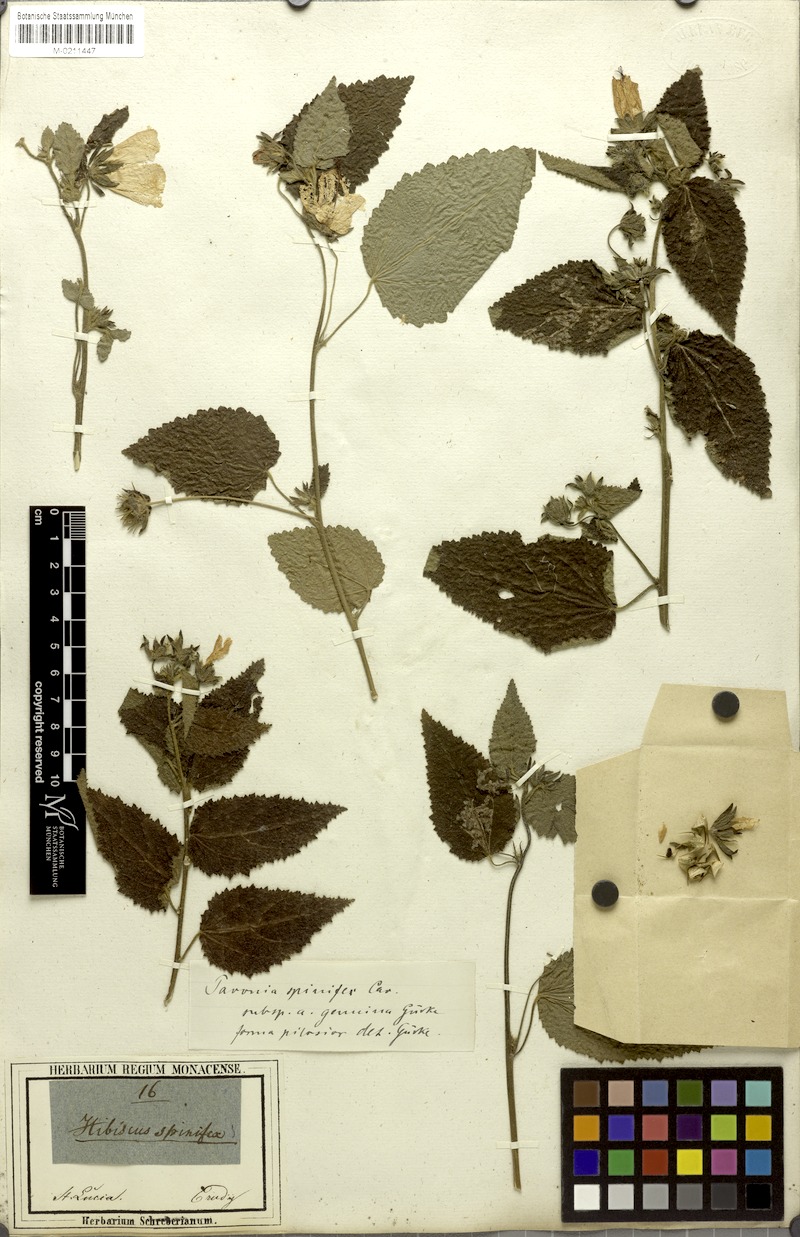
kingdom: Plantae
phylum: Tracheophyta
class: Magnoliopsida
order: Malvales
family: Malvaceae
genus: Pavonia
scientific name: Pavonia spinifex
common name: Ginger bush
